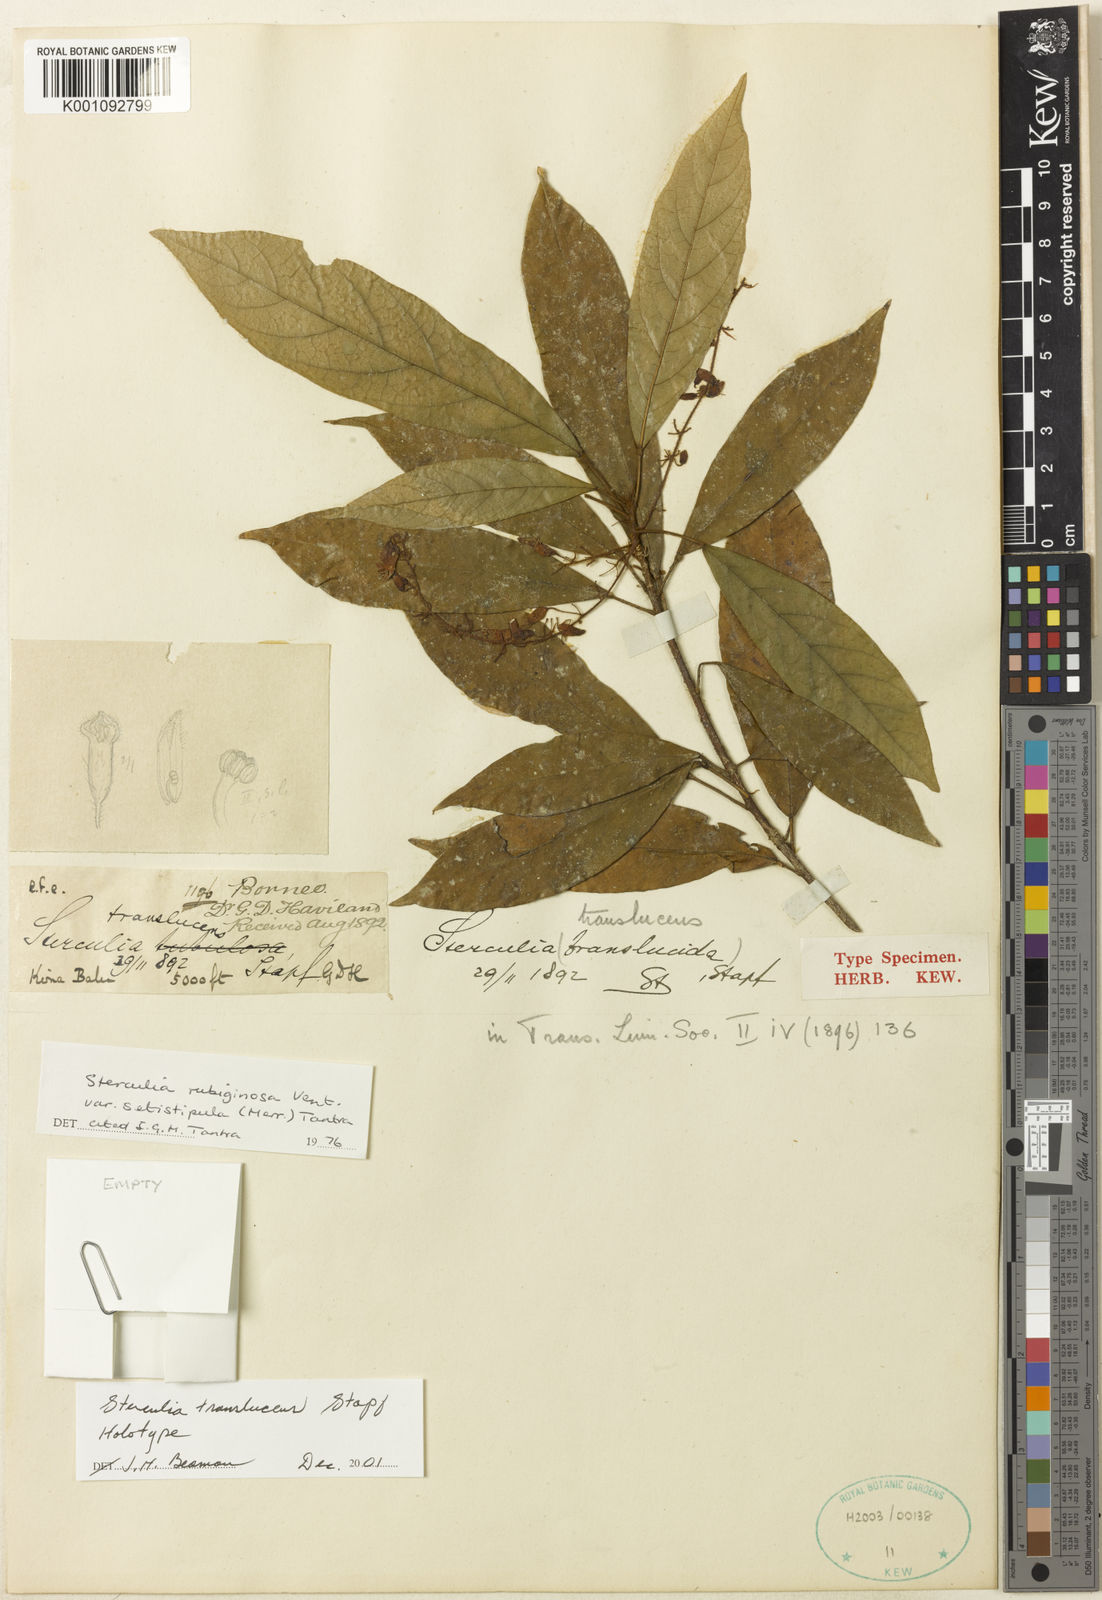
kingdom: Plantae
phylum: Tracheophyta
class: Magnoliopsida
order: Malvales
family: Malvaceae
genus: Sterculia
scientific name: Sterculia rubiginosa
